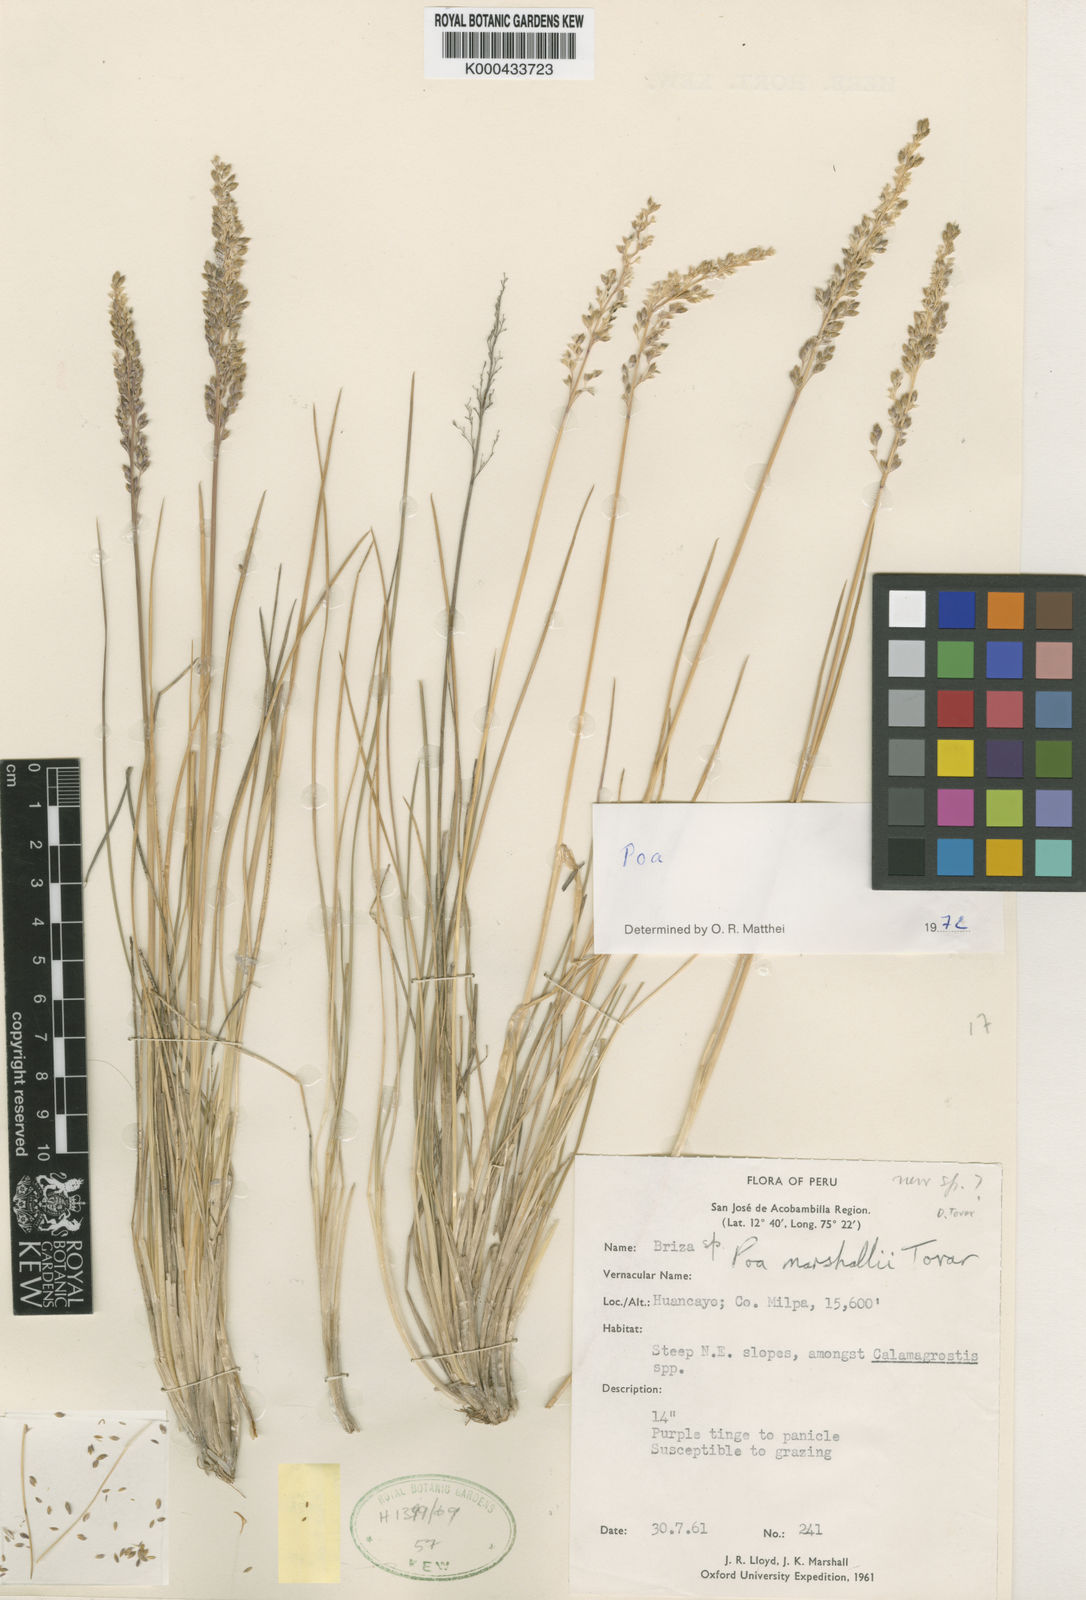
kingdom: Plantae
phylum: Tracheophyta
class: Liliopsida
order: Poales
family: Poaceae
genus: Poa
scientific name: Poa marshallii
